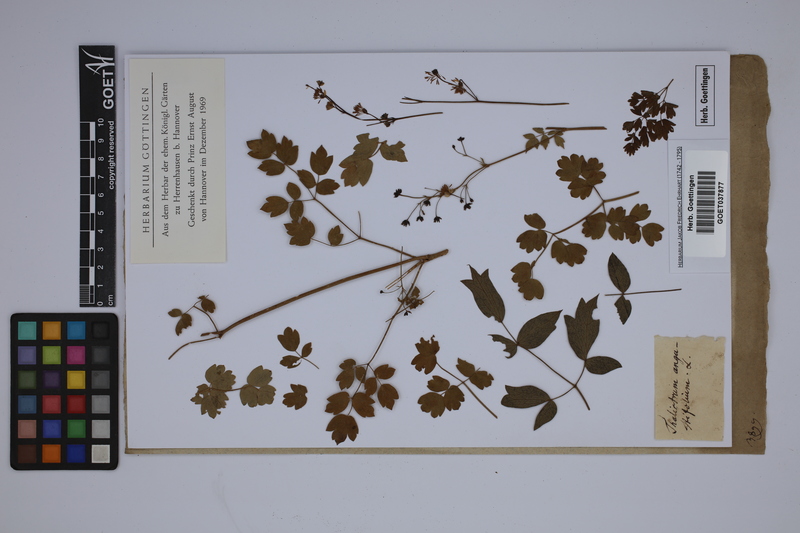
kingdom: Plantae
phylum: Tracheophyta
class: Magnoliopsida
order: Ranunculales
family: Ranunculaceae
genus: Thalictrum
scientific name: Thalictrum aquilegiifolium
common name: French meadow-rue
